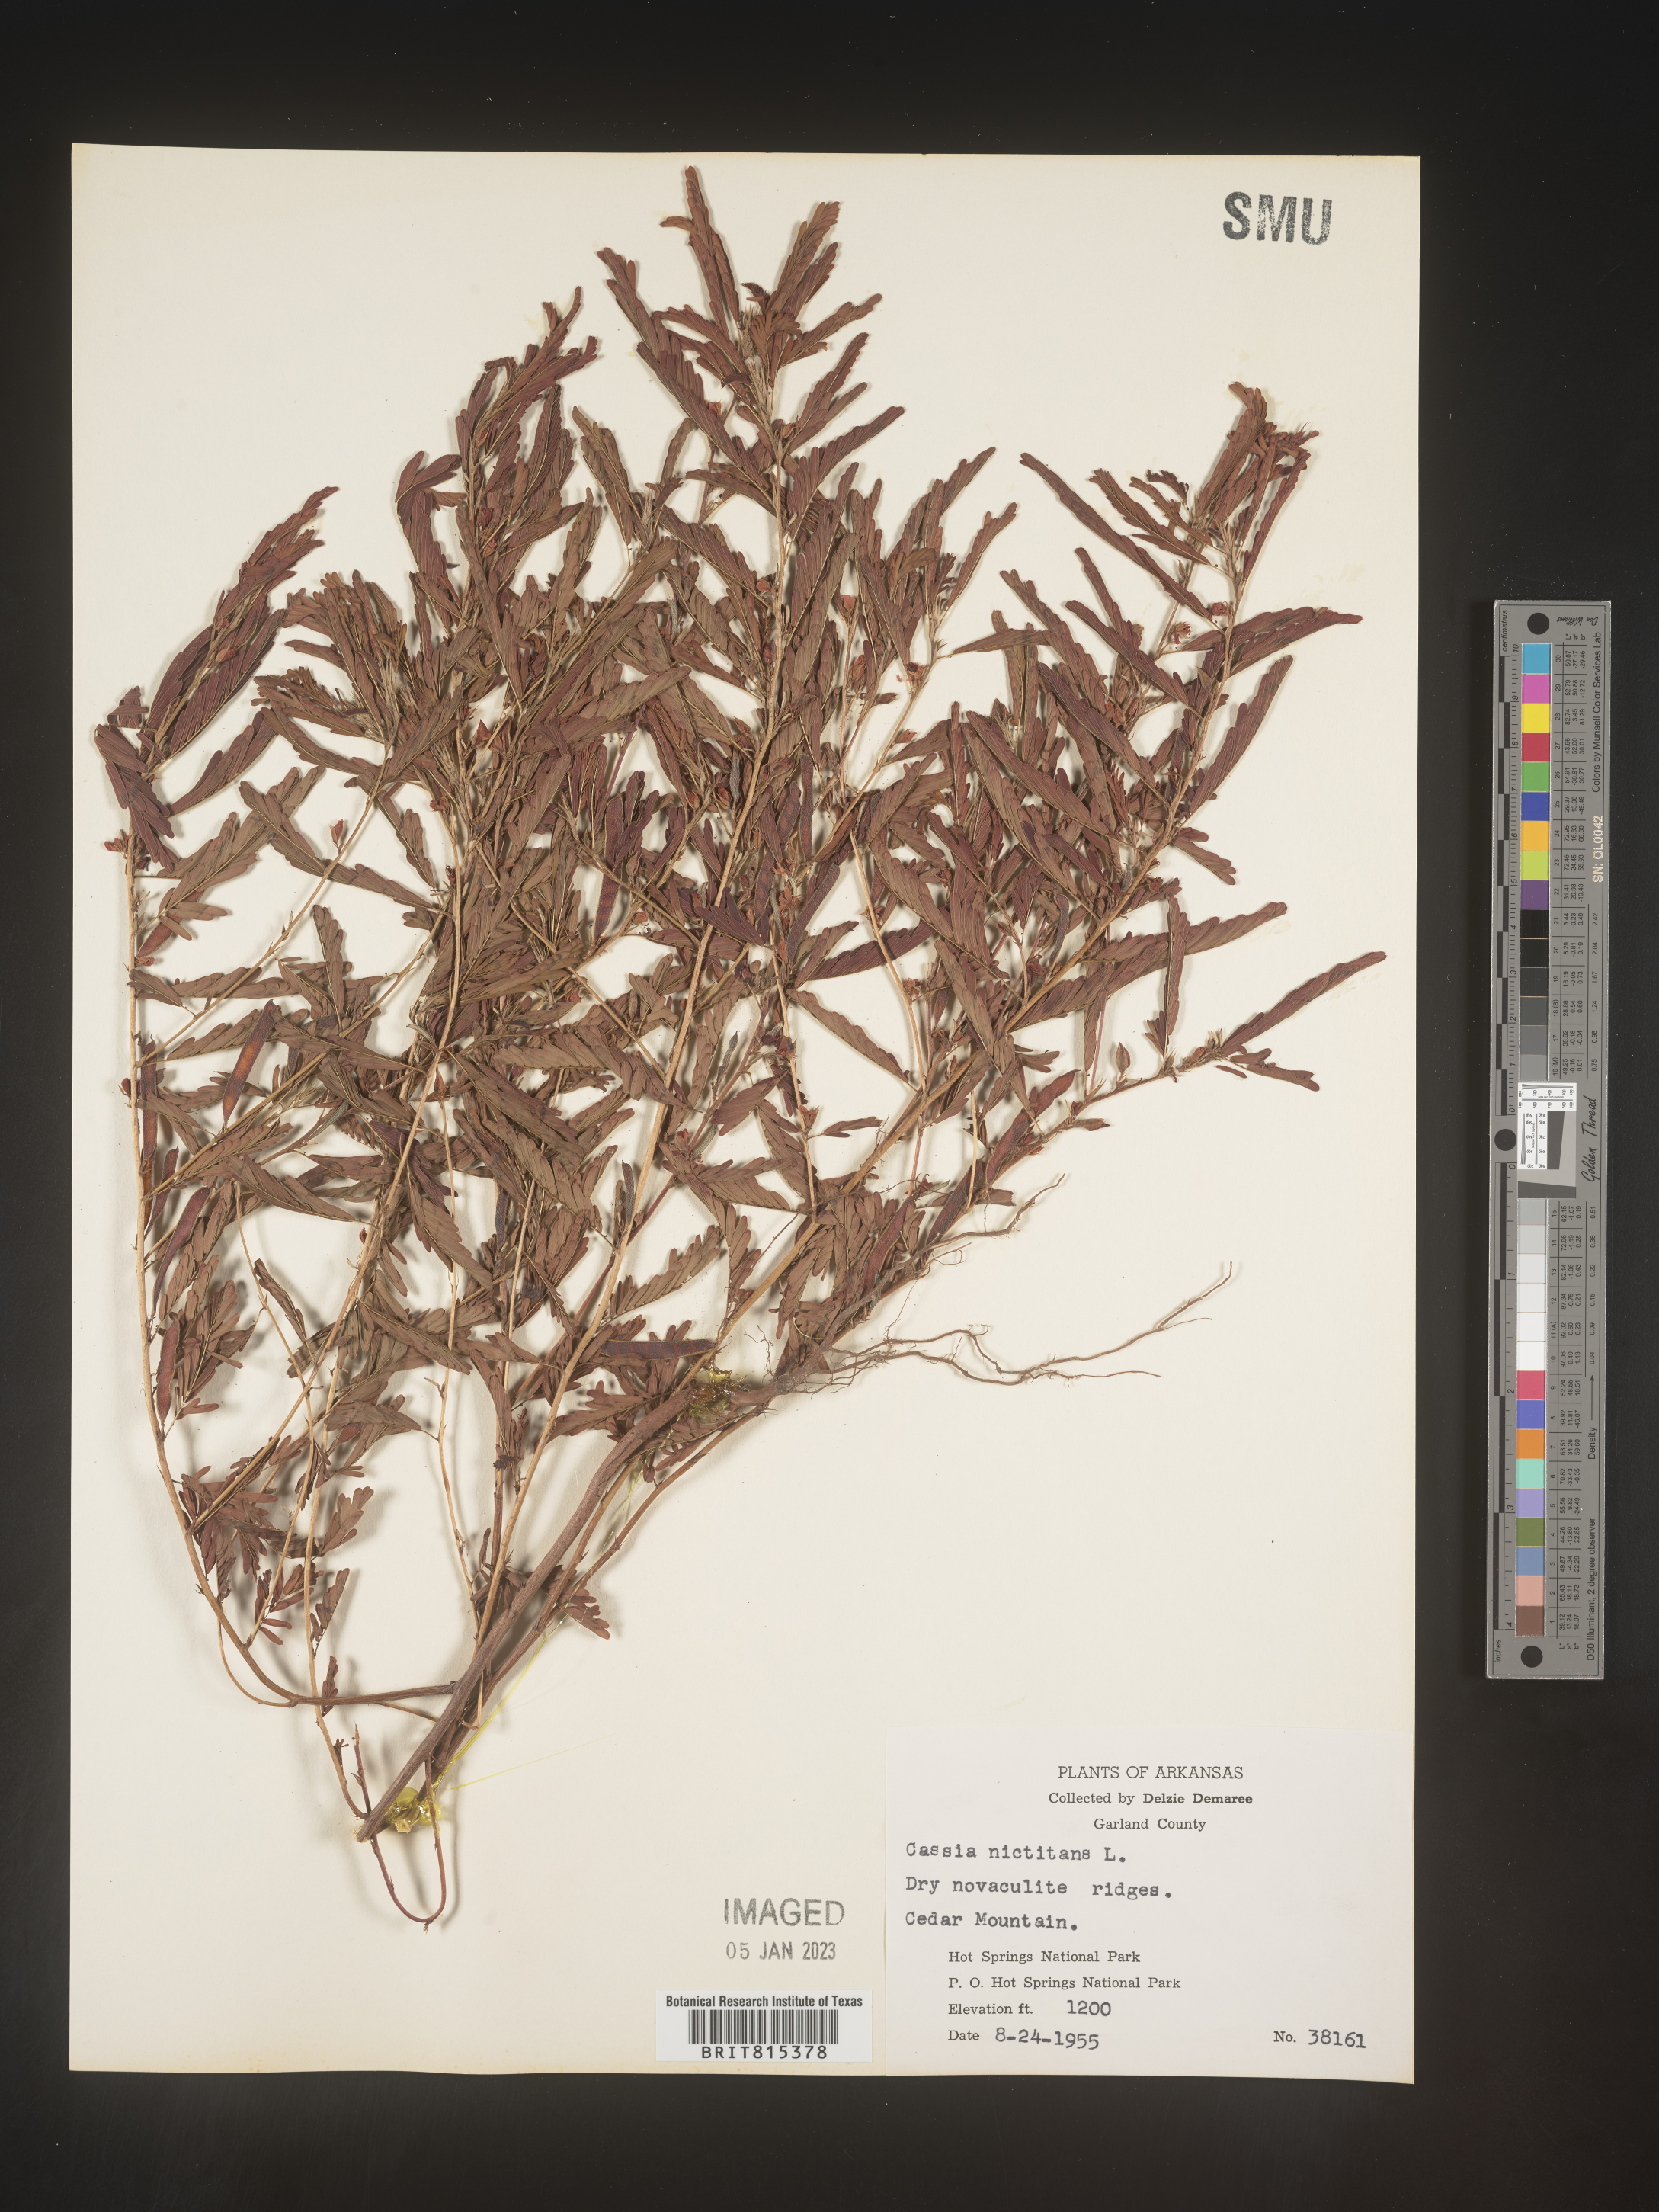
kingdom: Plantae
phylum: Tracheophyta
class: Magnoliopsida
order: Fabales
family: Fabaceae
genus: Chamaecrista
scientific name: Chamaecrista nictitans
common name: Sensitive cassia
